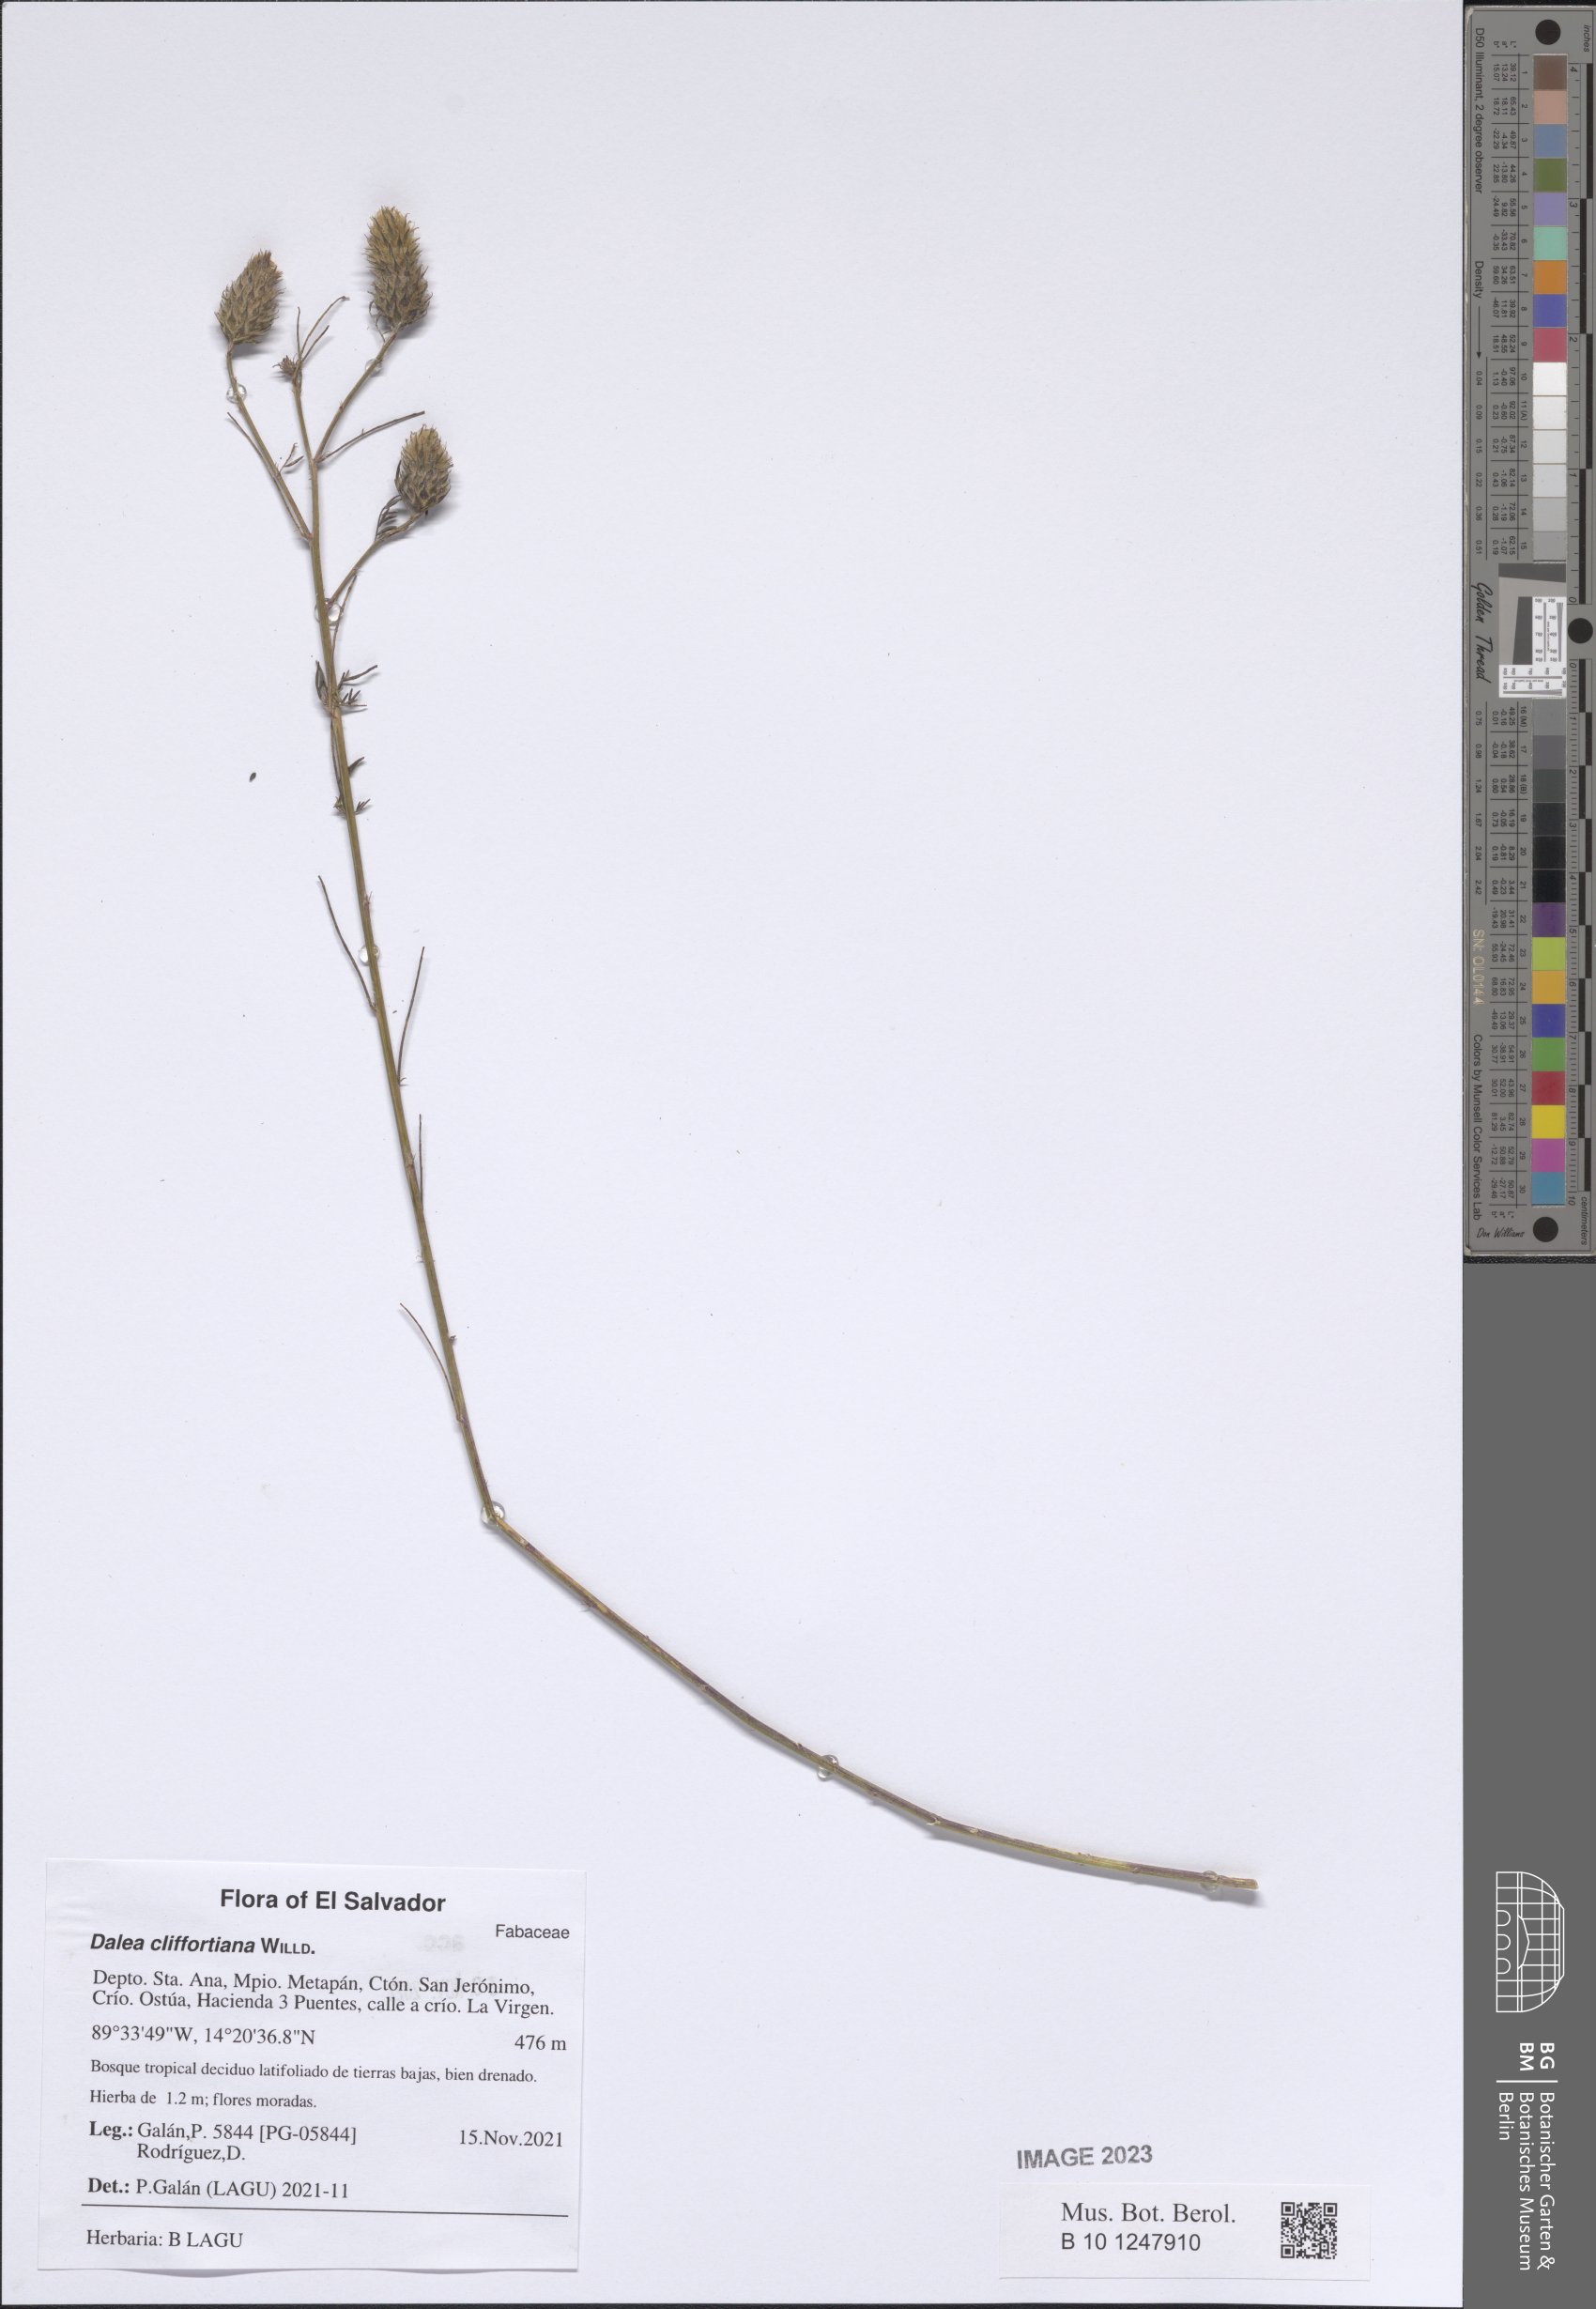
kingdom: Plantae
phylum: Tracheophyta
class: Magnoliopsida
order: Fabales
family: Fabaceae
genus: Dalea
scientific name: Dalea cliffortiana
